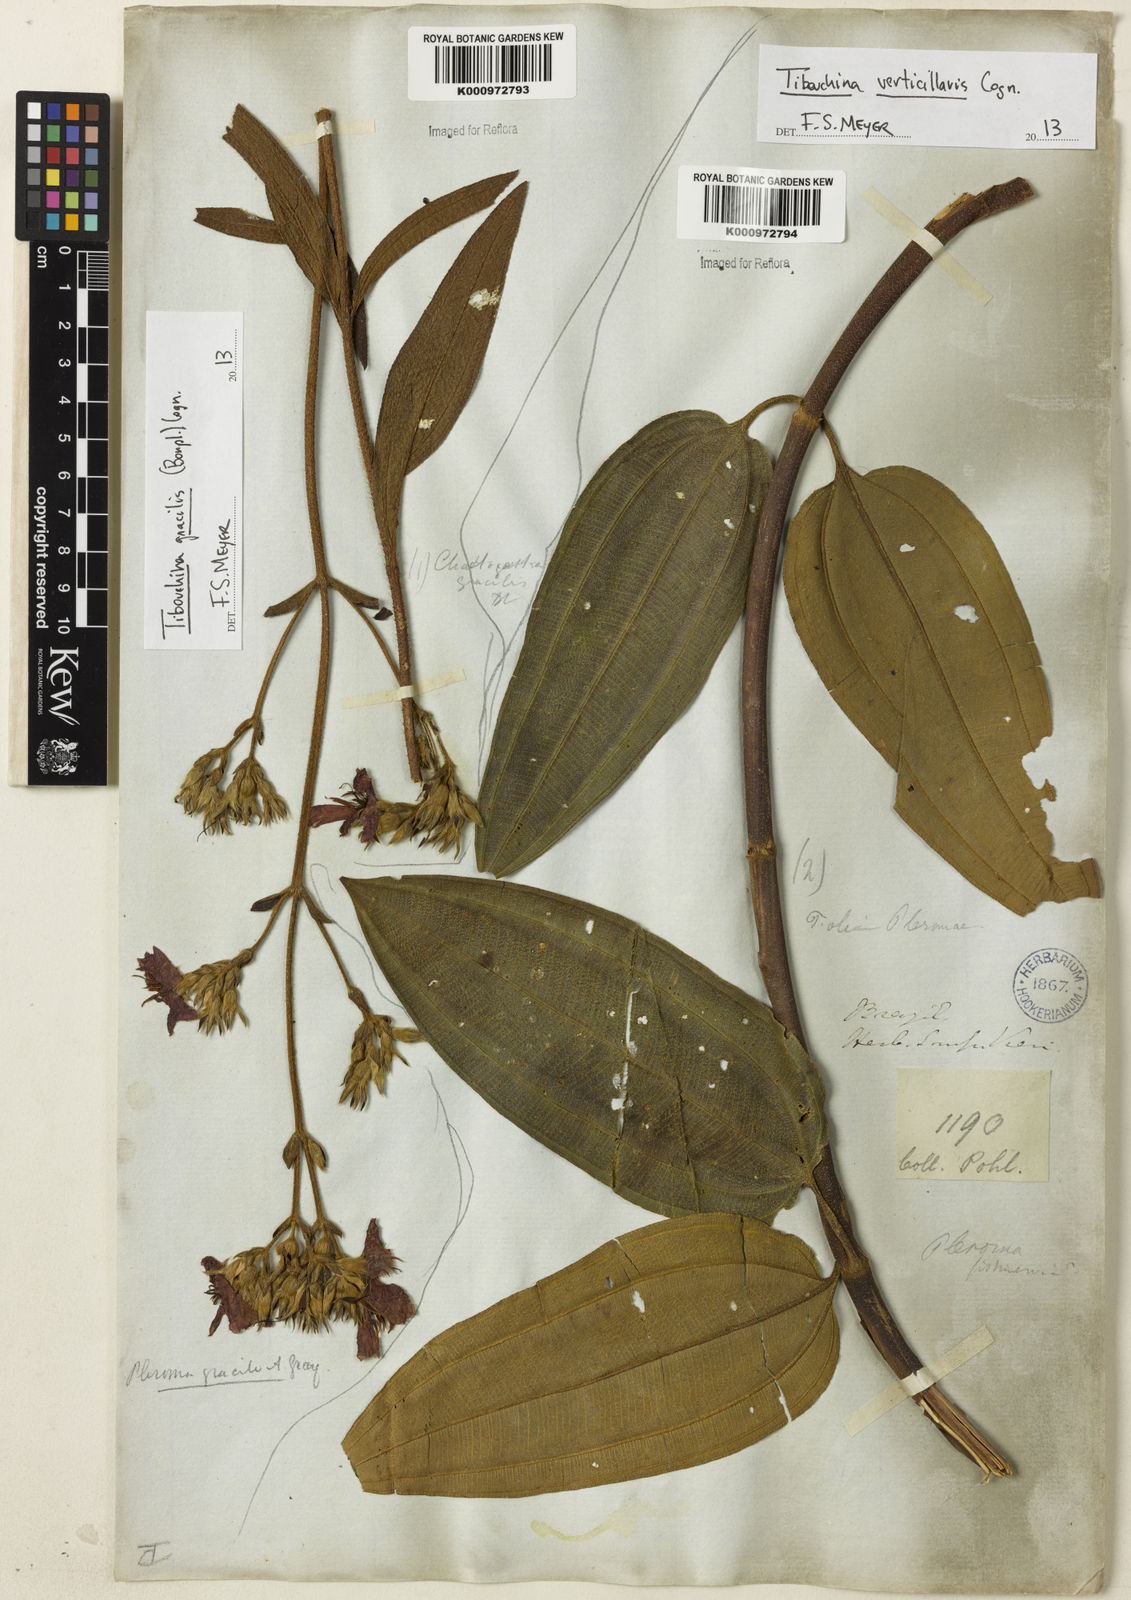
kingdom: Plantae
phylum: Tracheophyta
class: Magnoliopsida
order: Myrtales
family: Melastomataceae
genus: Chaetogastra
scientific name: Chaetogastra gracilis
